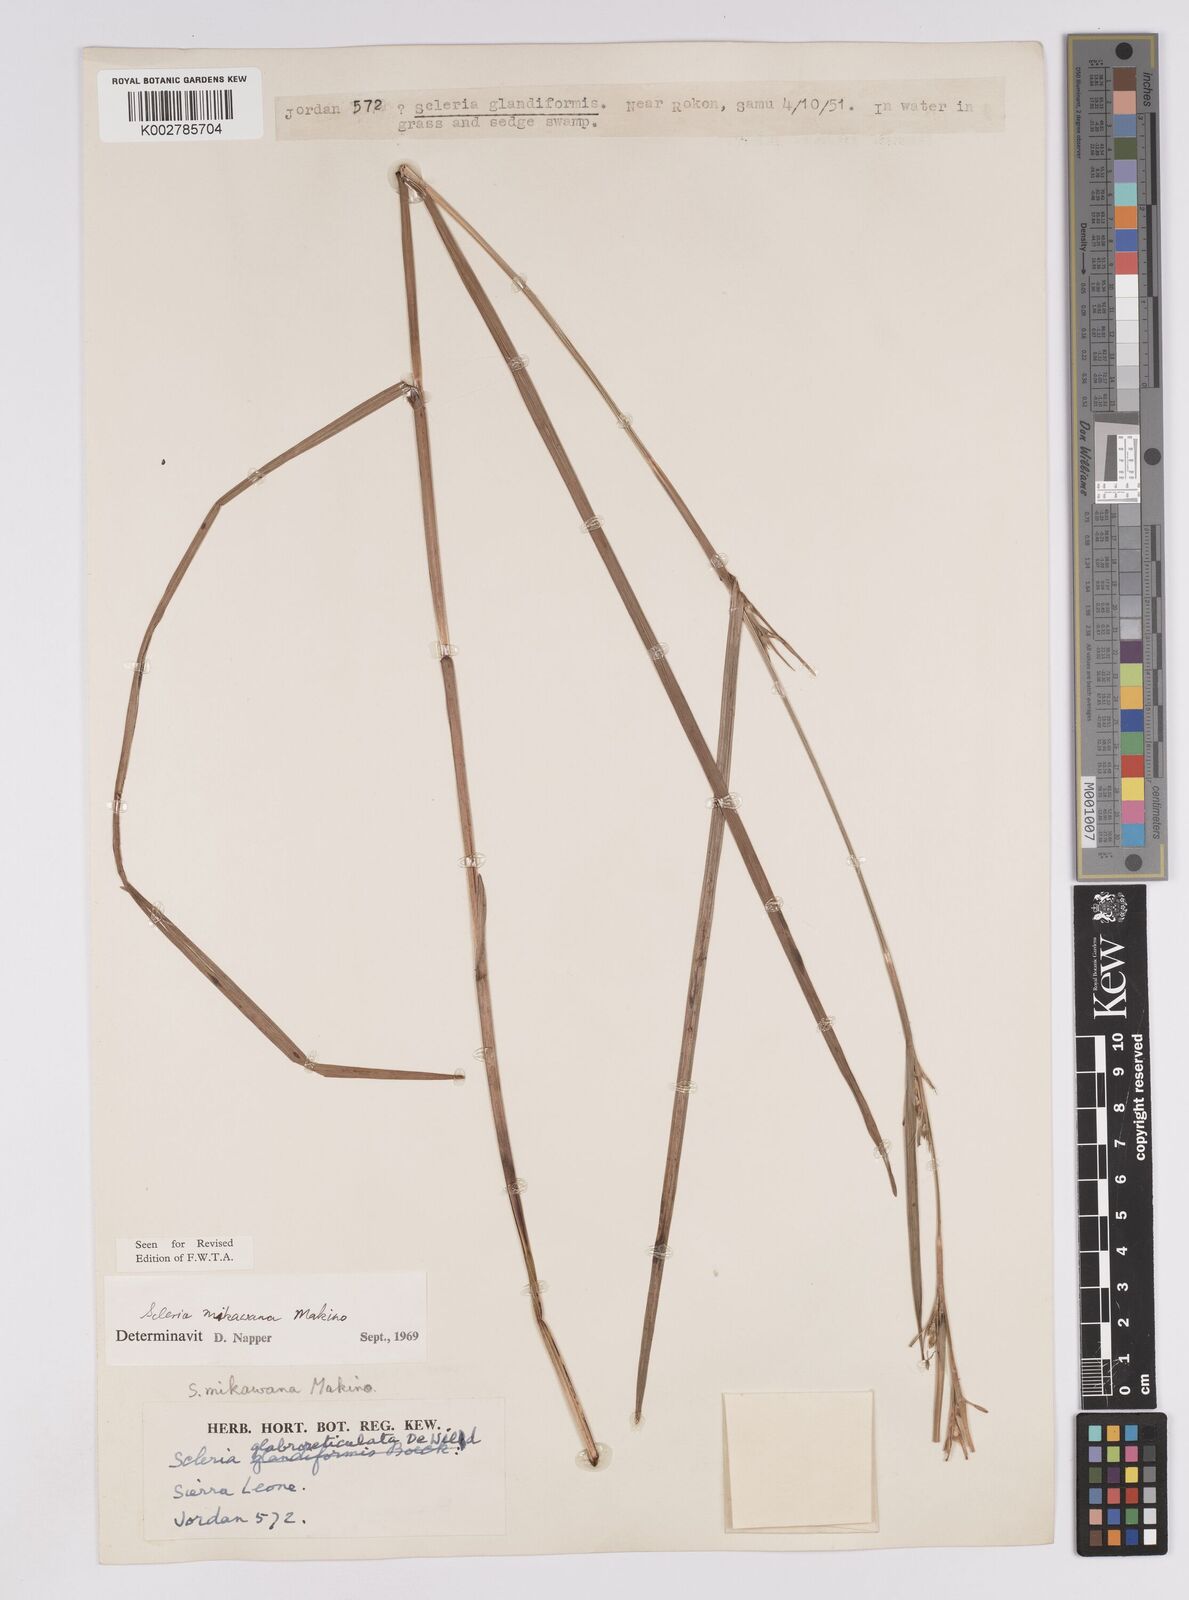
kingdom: Plantae
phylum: Tracheophyta
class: Liliopsida
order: Poales
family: Cyperaceae
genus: Scleria
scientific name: Scleria mikawana
